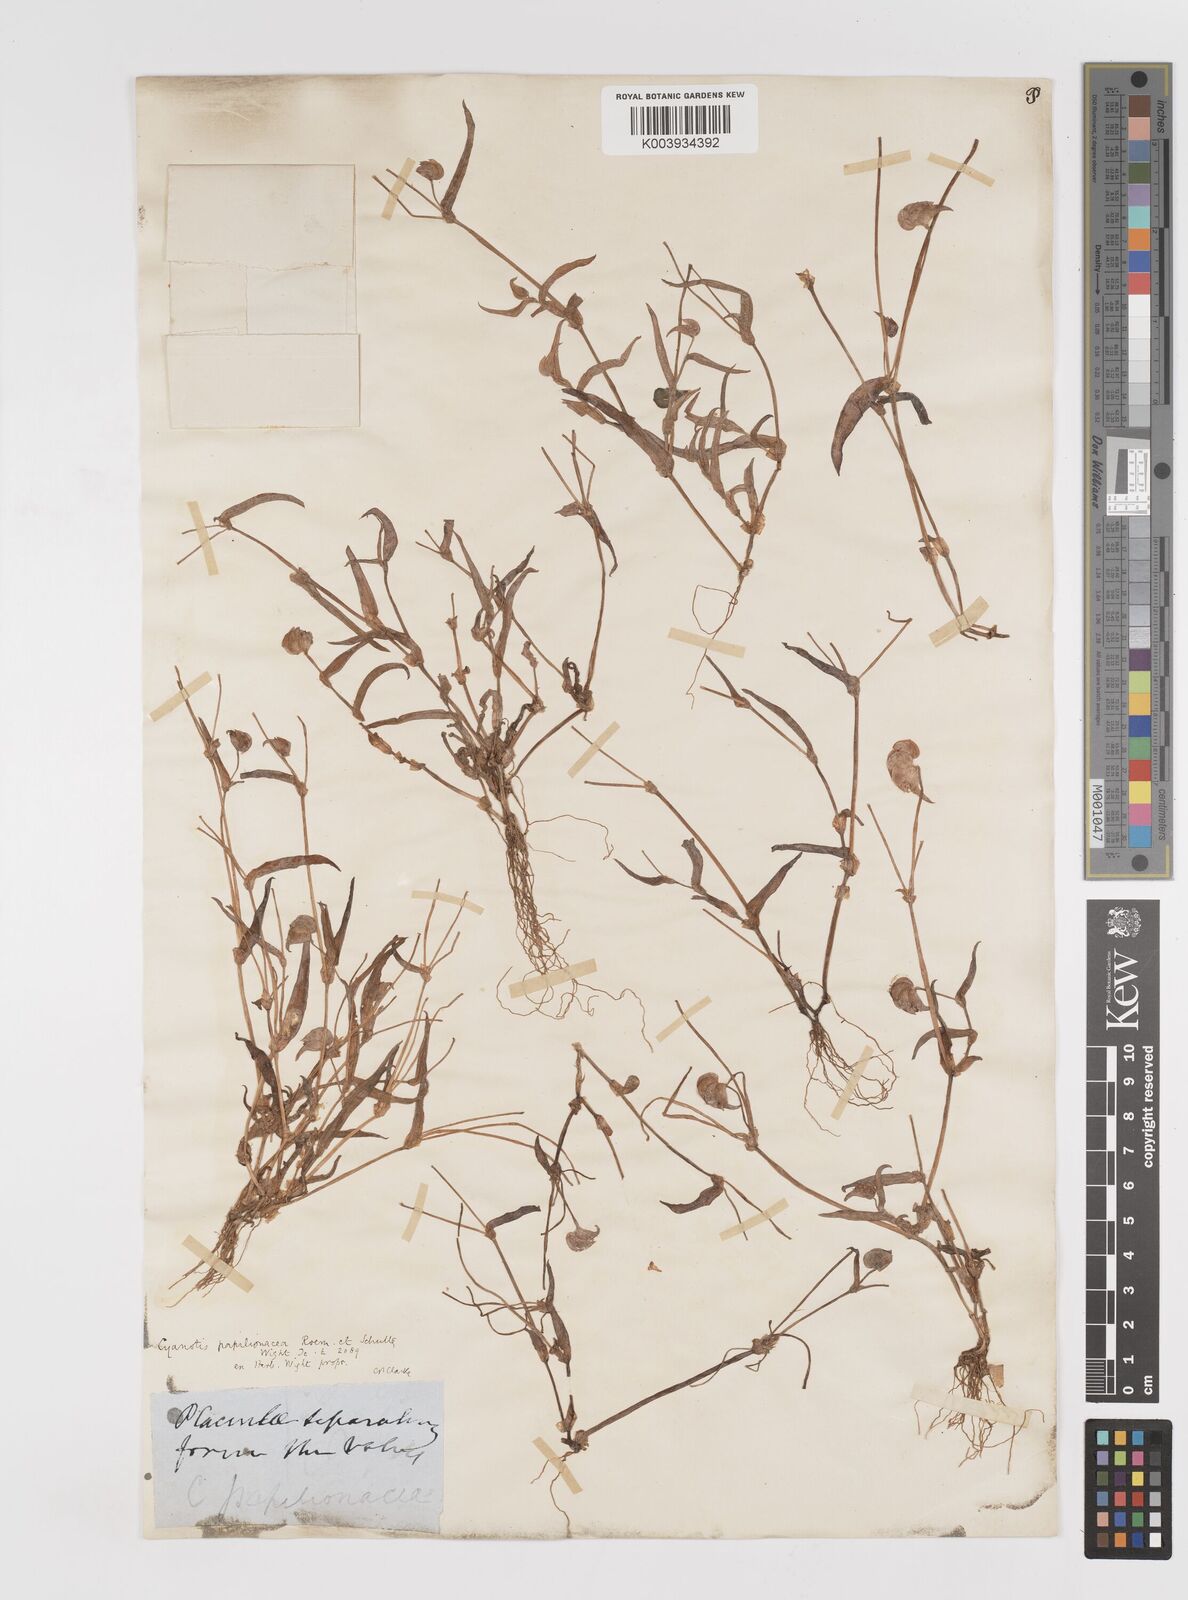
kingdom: Plantae
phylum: Tracheophyta
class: Liliopsida
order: Commelinales
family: Commelinaceae
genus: Cyanotis
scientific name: Cyanotis cristata
